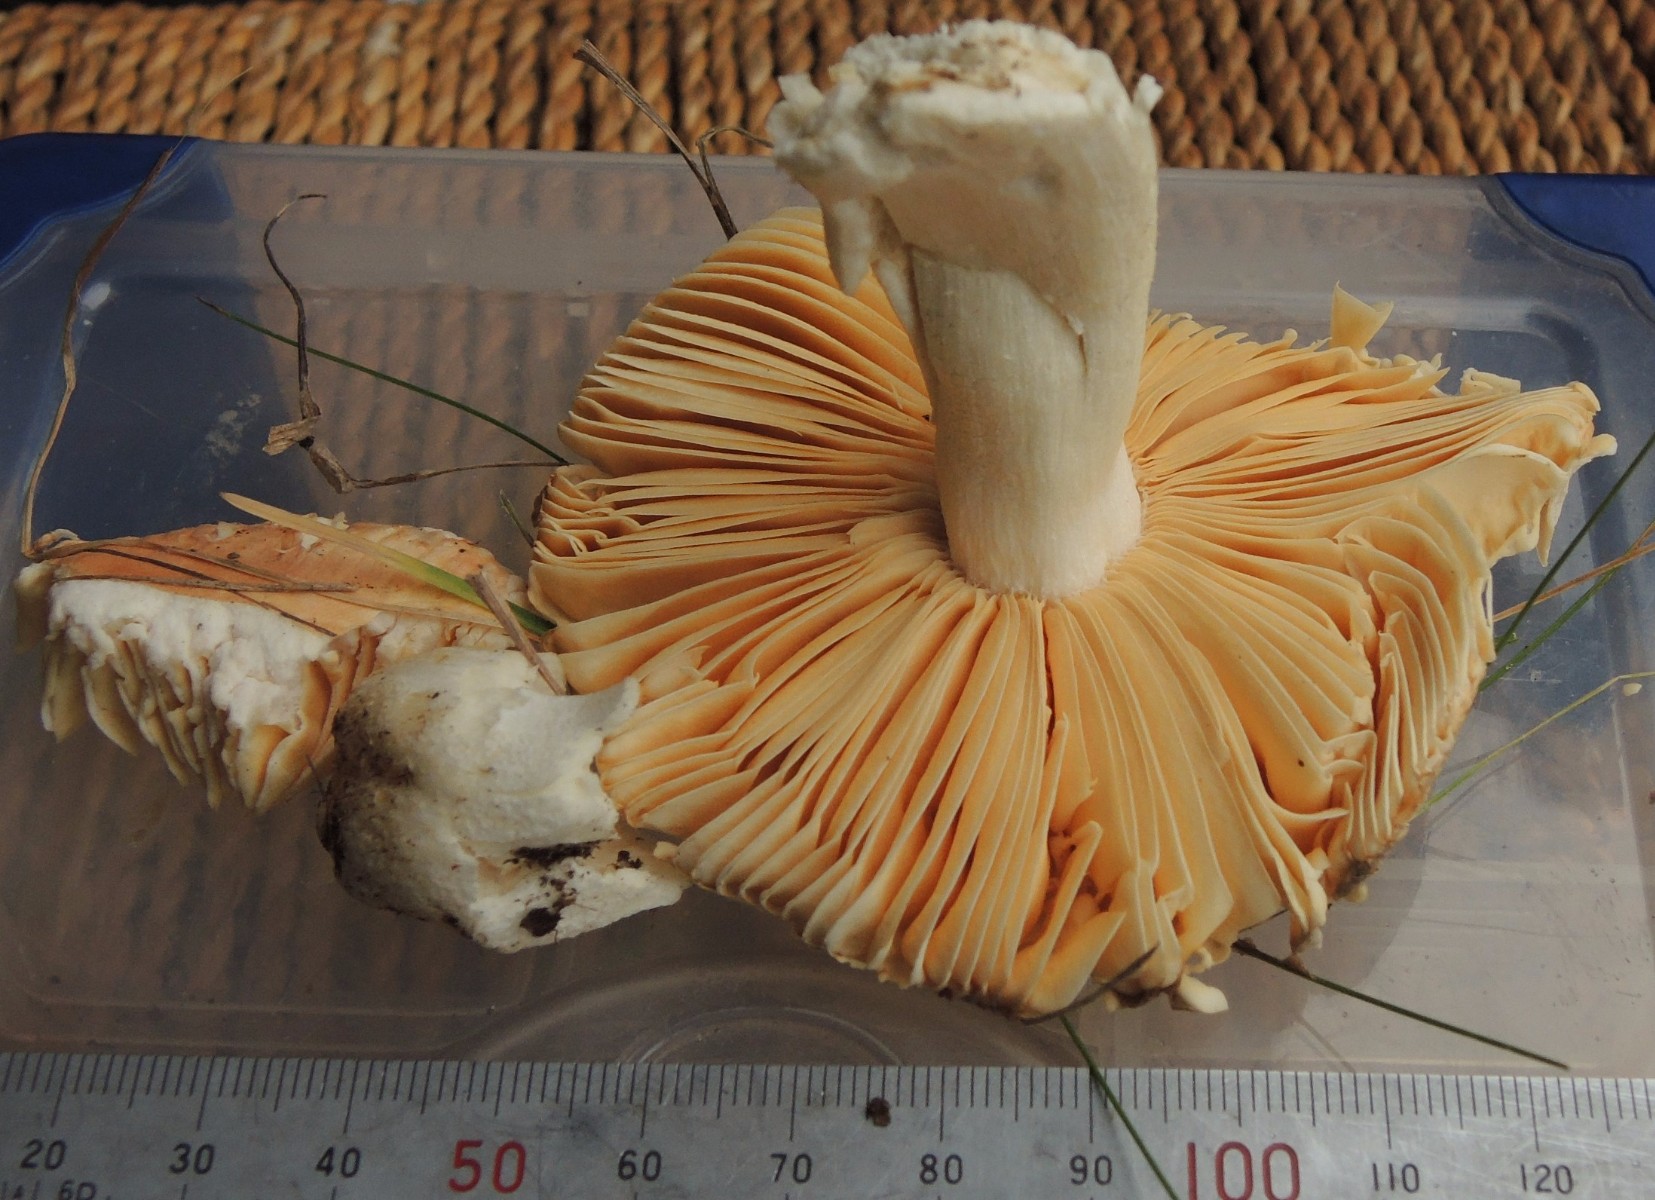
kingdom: Fungi
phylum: Basidiomycota
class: Agaricomycetes
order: Russulales
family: Russulaceae
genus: Russula
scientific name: Russula risigallina
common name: abrikos-skørhat
